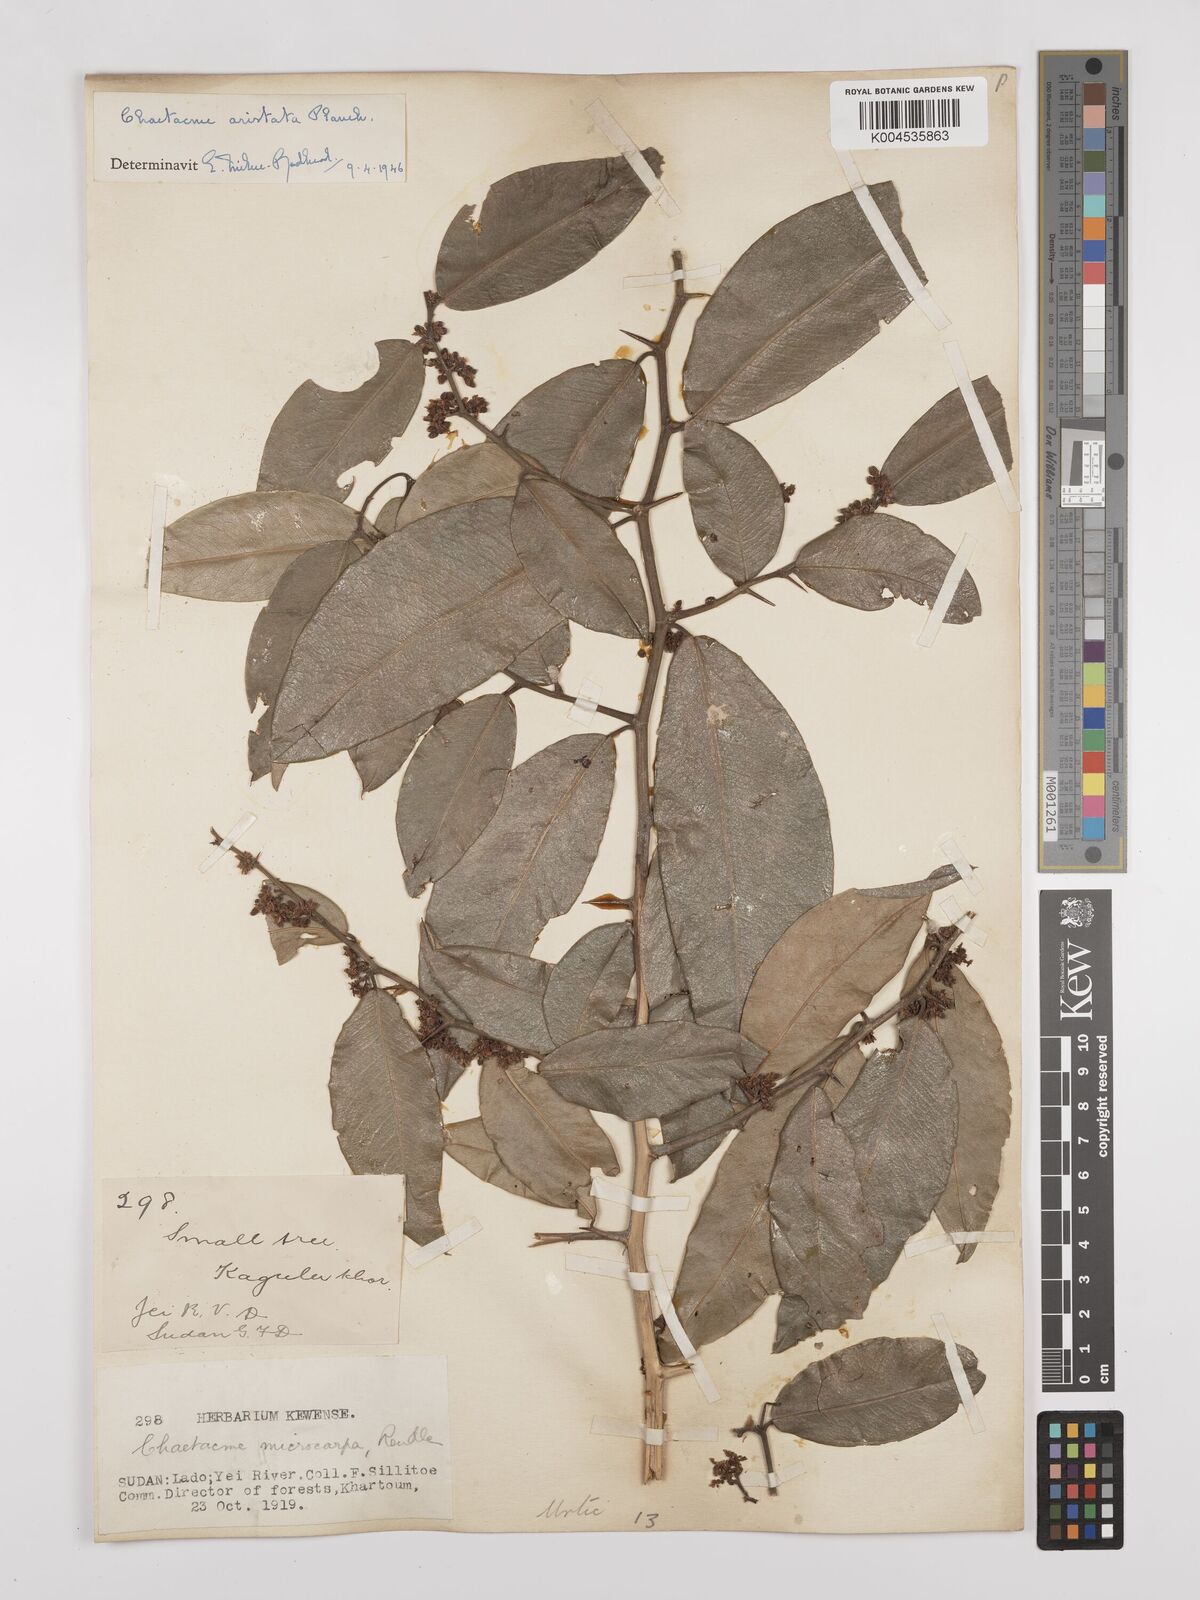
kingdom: Plantae
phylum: Tracheophyta
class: Magnoliopsida
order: Rosales
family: Cannabaceae
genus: Chaetachme
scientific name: Chaetachme aristata
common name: Thorny elm
